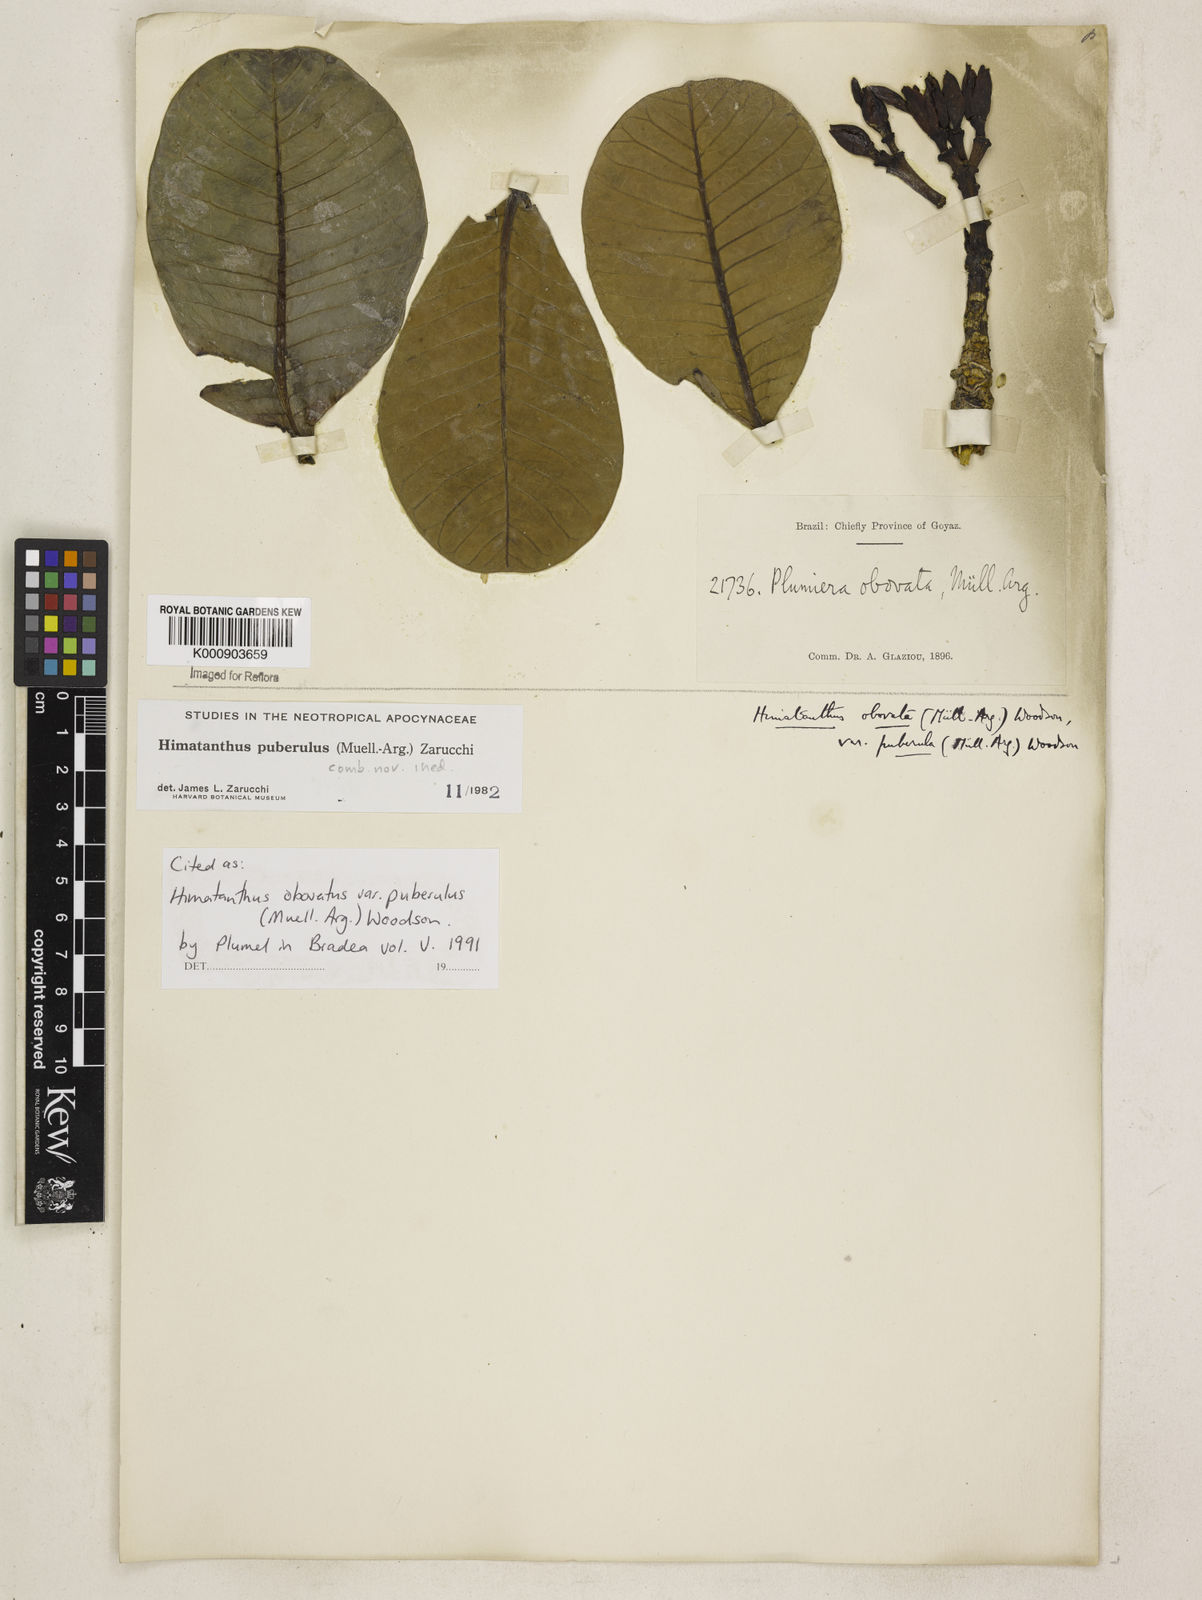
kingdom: Plantae
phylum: Tracheophyta
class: Magnoliopsida
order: Gentianales
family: Apocynaceae
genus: Himatanthus
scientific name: Himatanthus
